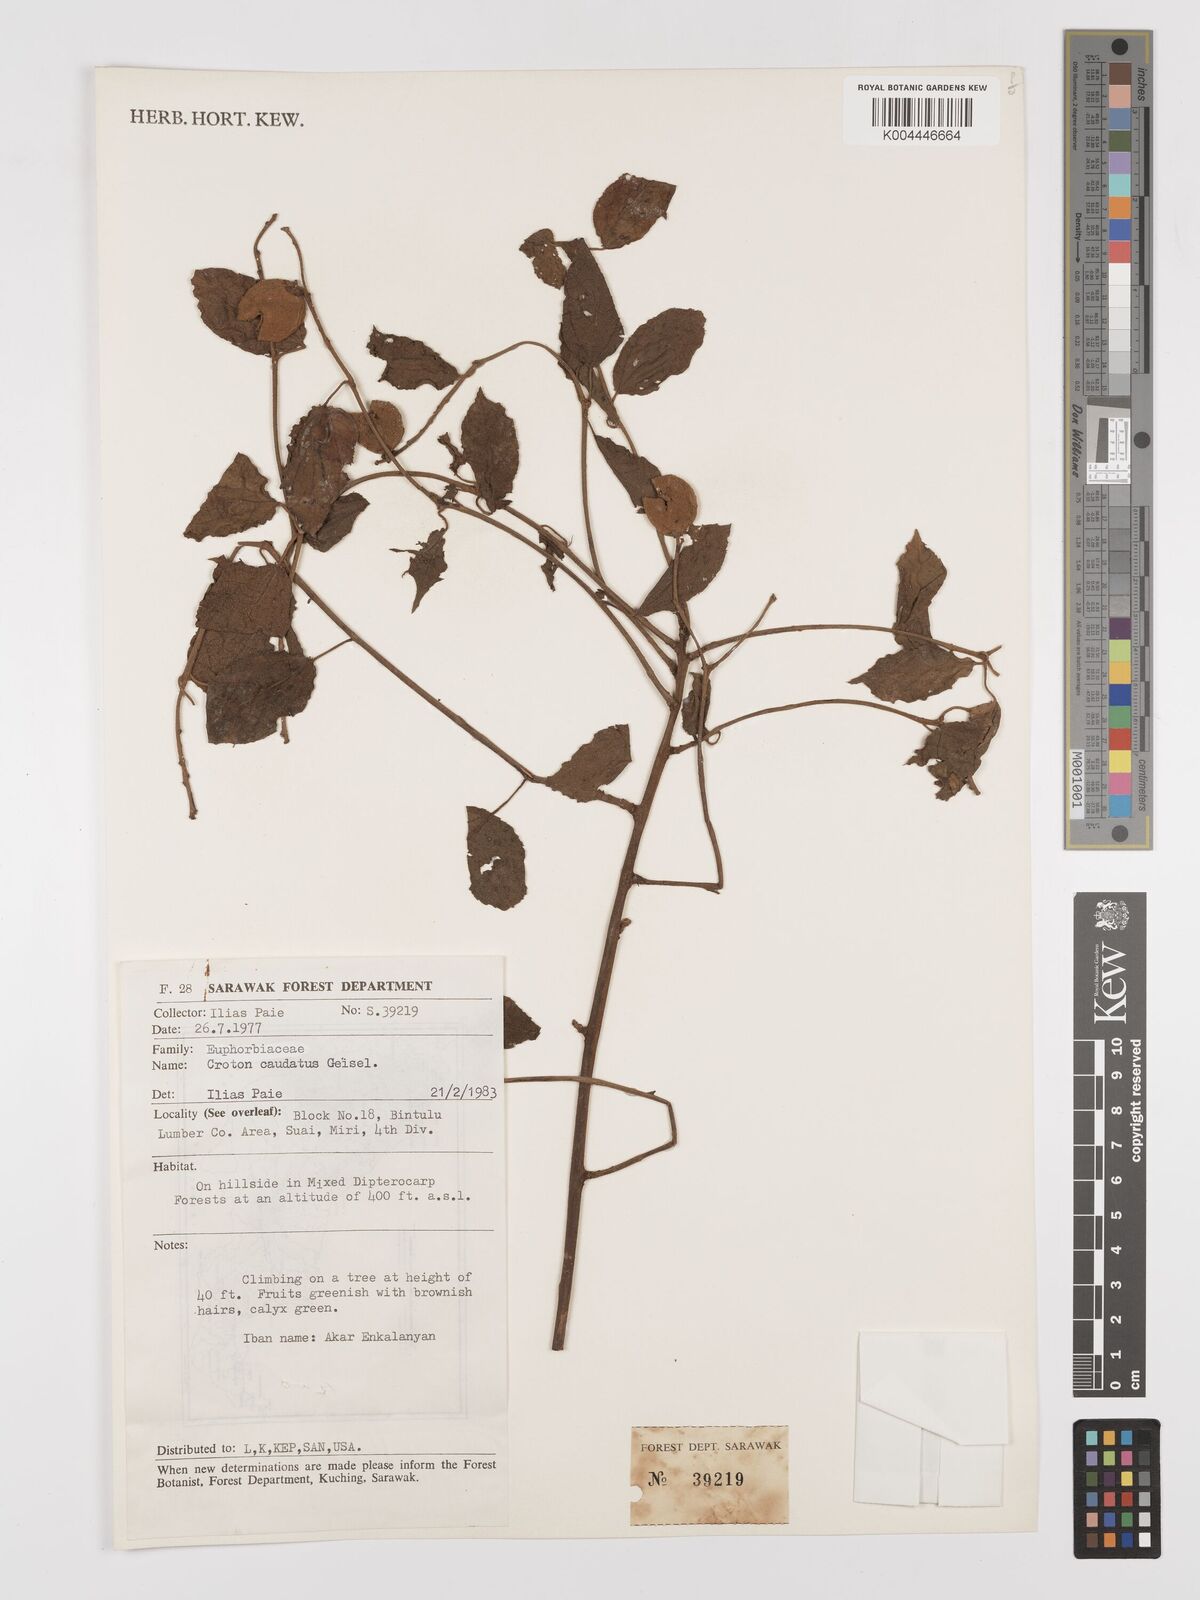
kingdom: Plantae
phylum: Tracheophyta
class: Magnoliopsida
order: Malpighiales
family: Euphorbiaceae
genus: Croton
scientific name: Croton caudatus
